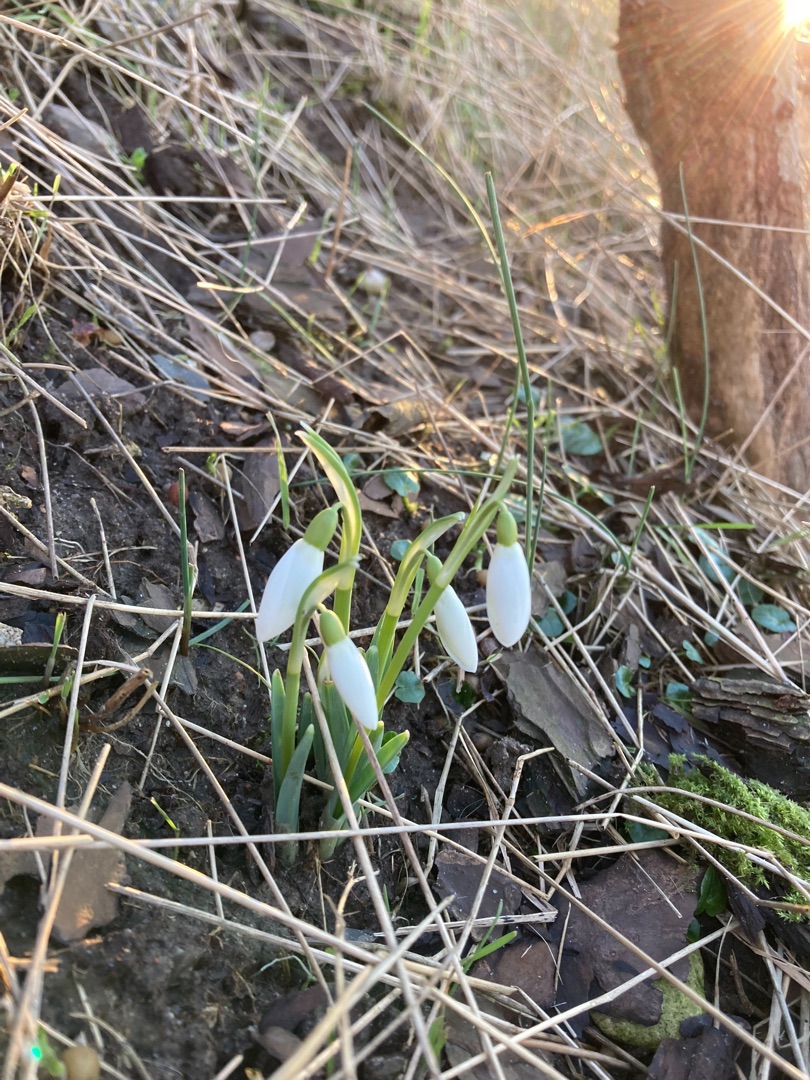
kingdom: Plantae
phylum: Tracheophyta
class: Liliopsida
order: Asparagales
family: Amaryllidaceae
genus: Galanthus
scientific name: Galanthus nivalis
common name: Vintergæk
